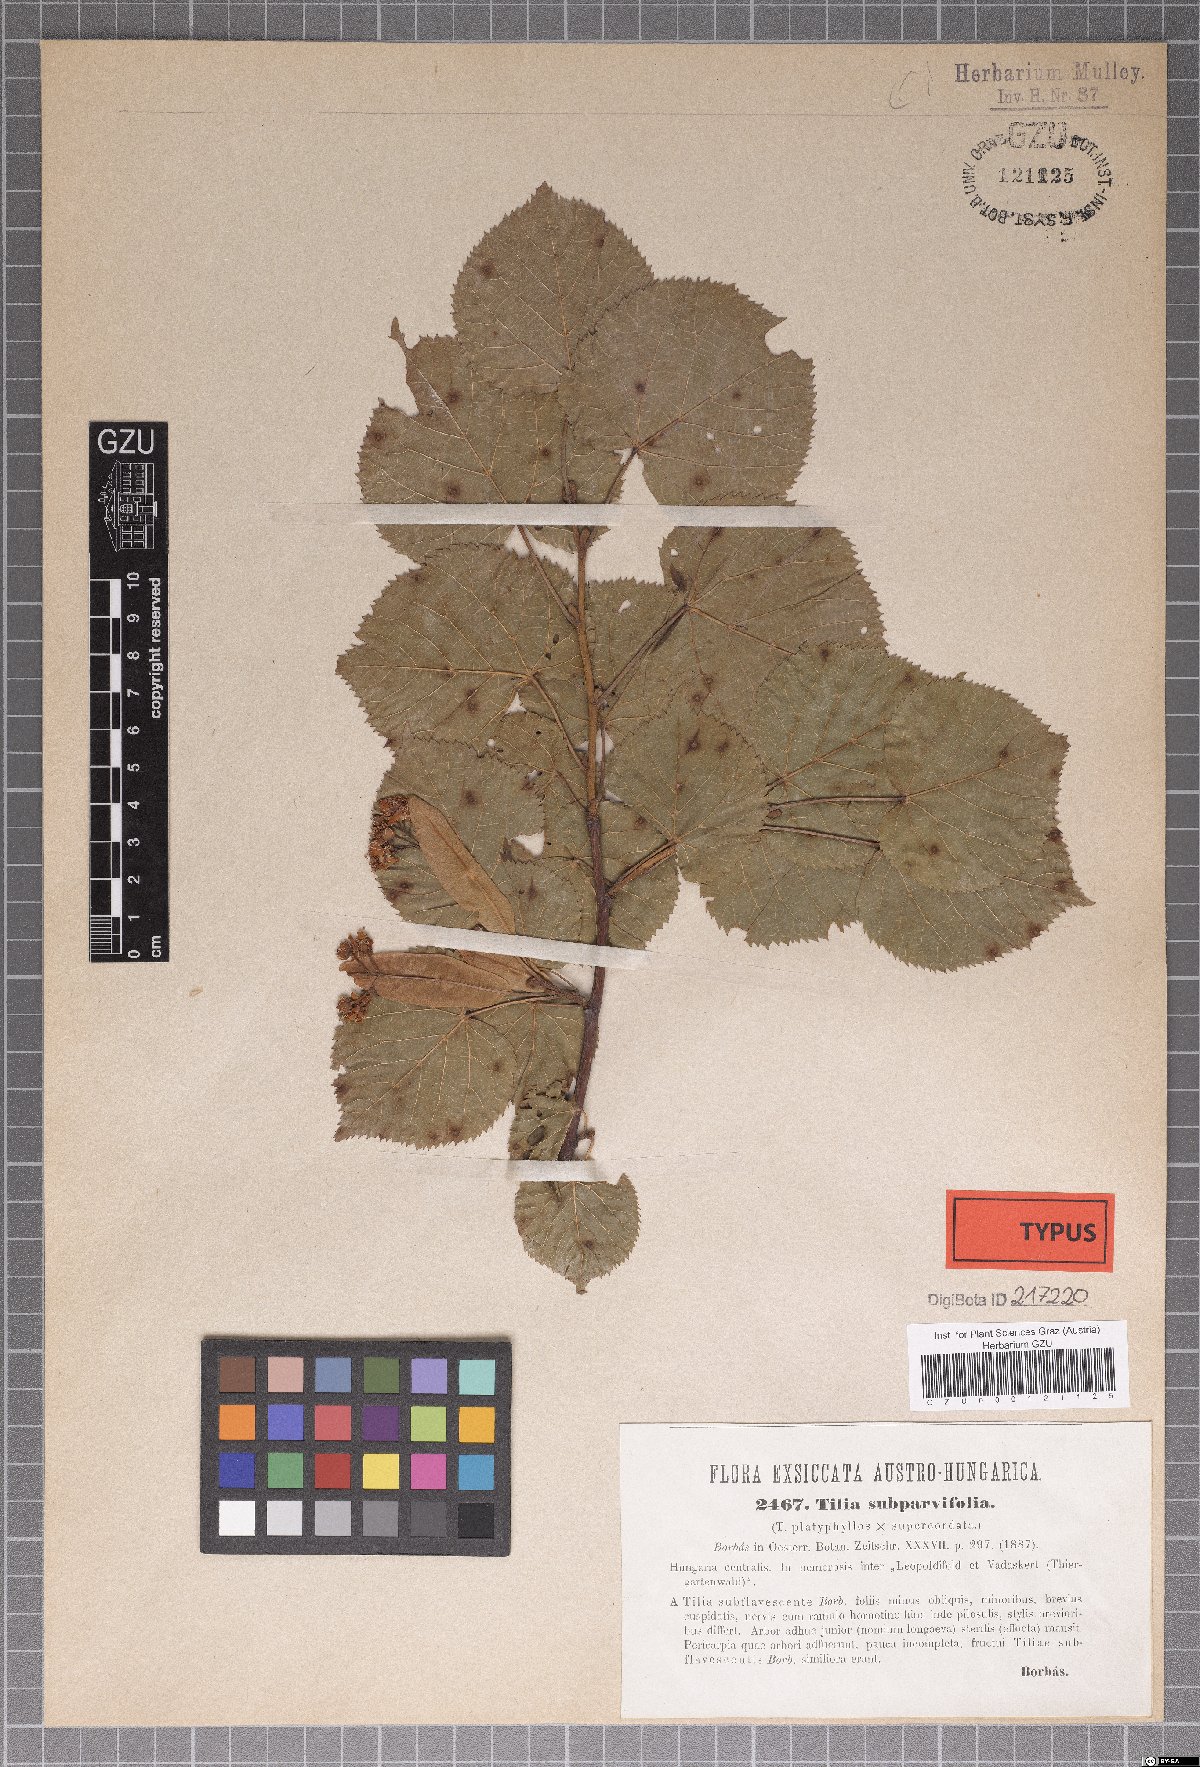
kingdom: Plantae
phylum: Tracheophyta
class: Magnoliopsida
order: Malvales
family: Malvaceae
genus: Tilia
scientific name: Tilia europaea
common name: European linden
